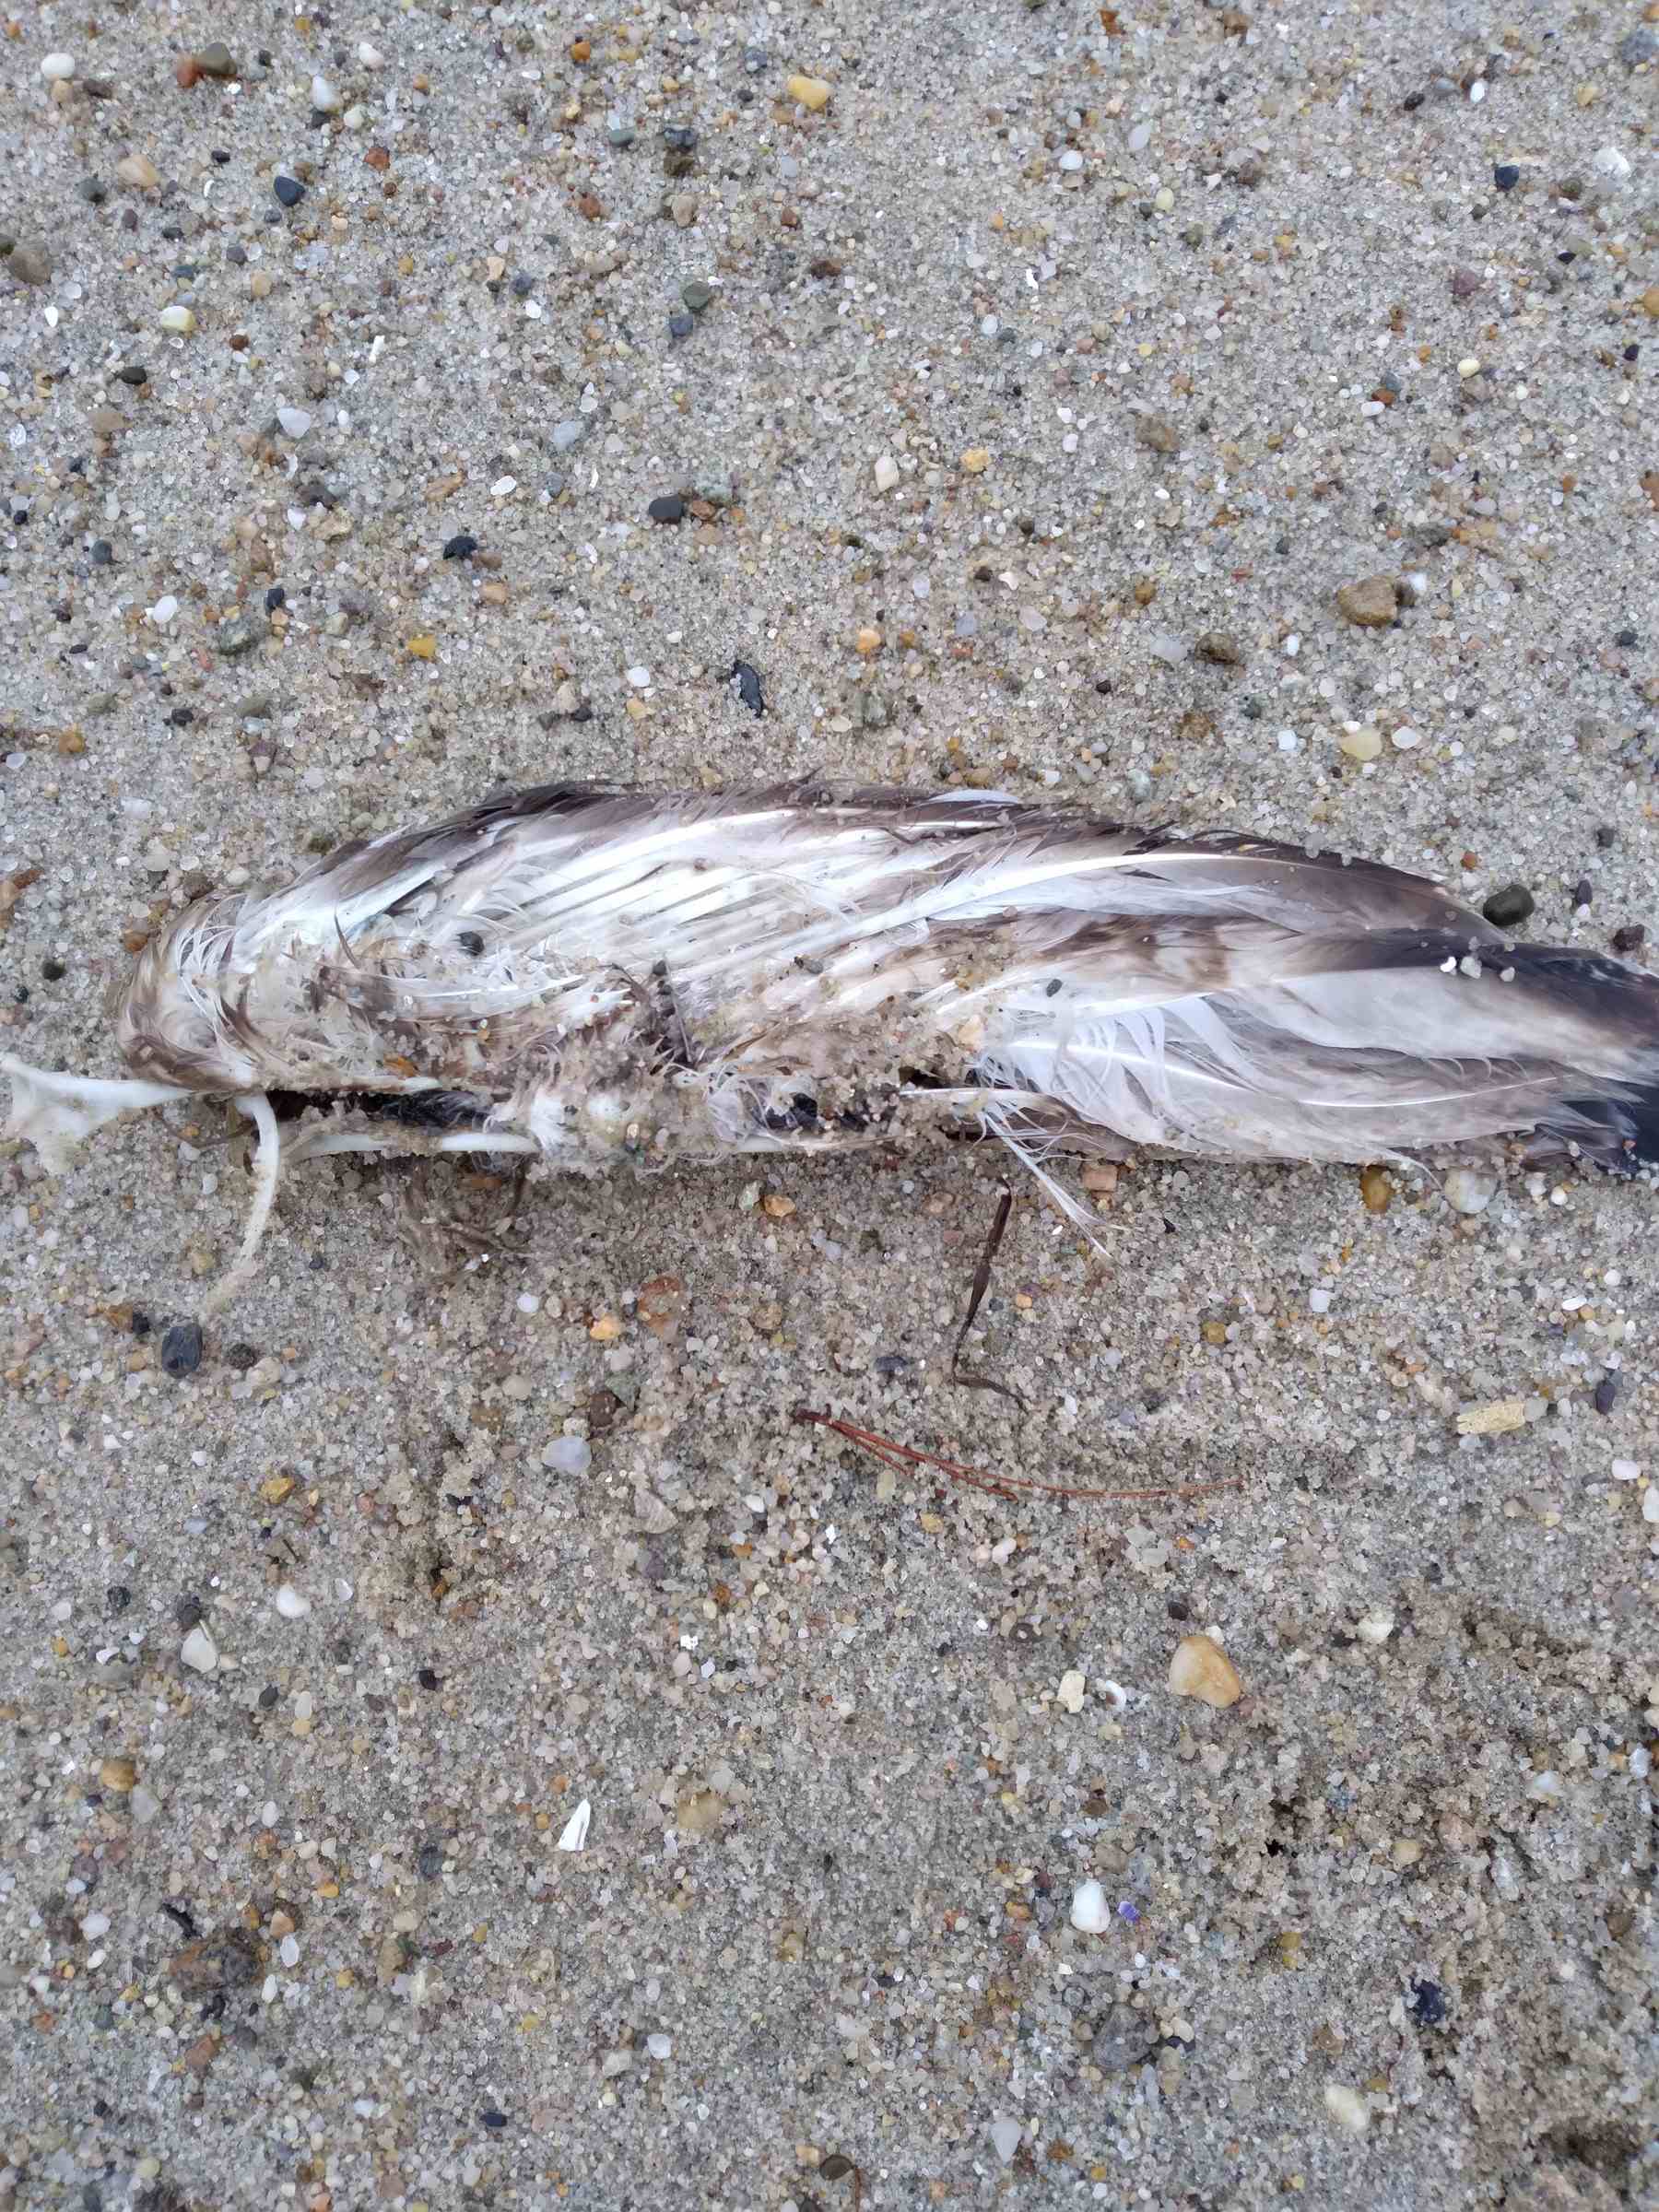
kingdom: Animalia
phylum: Chordata
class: Aves
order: Anseriformes
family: Anatidae
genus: Clangula
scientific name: Clangula hyemalis
